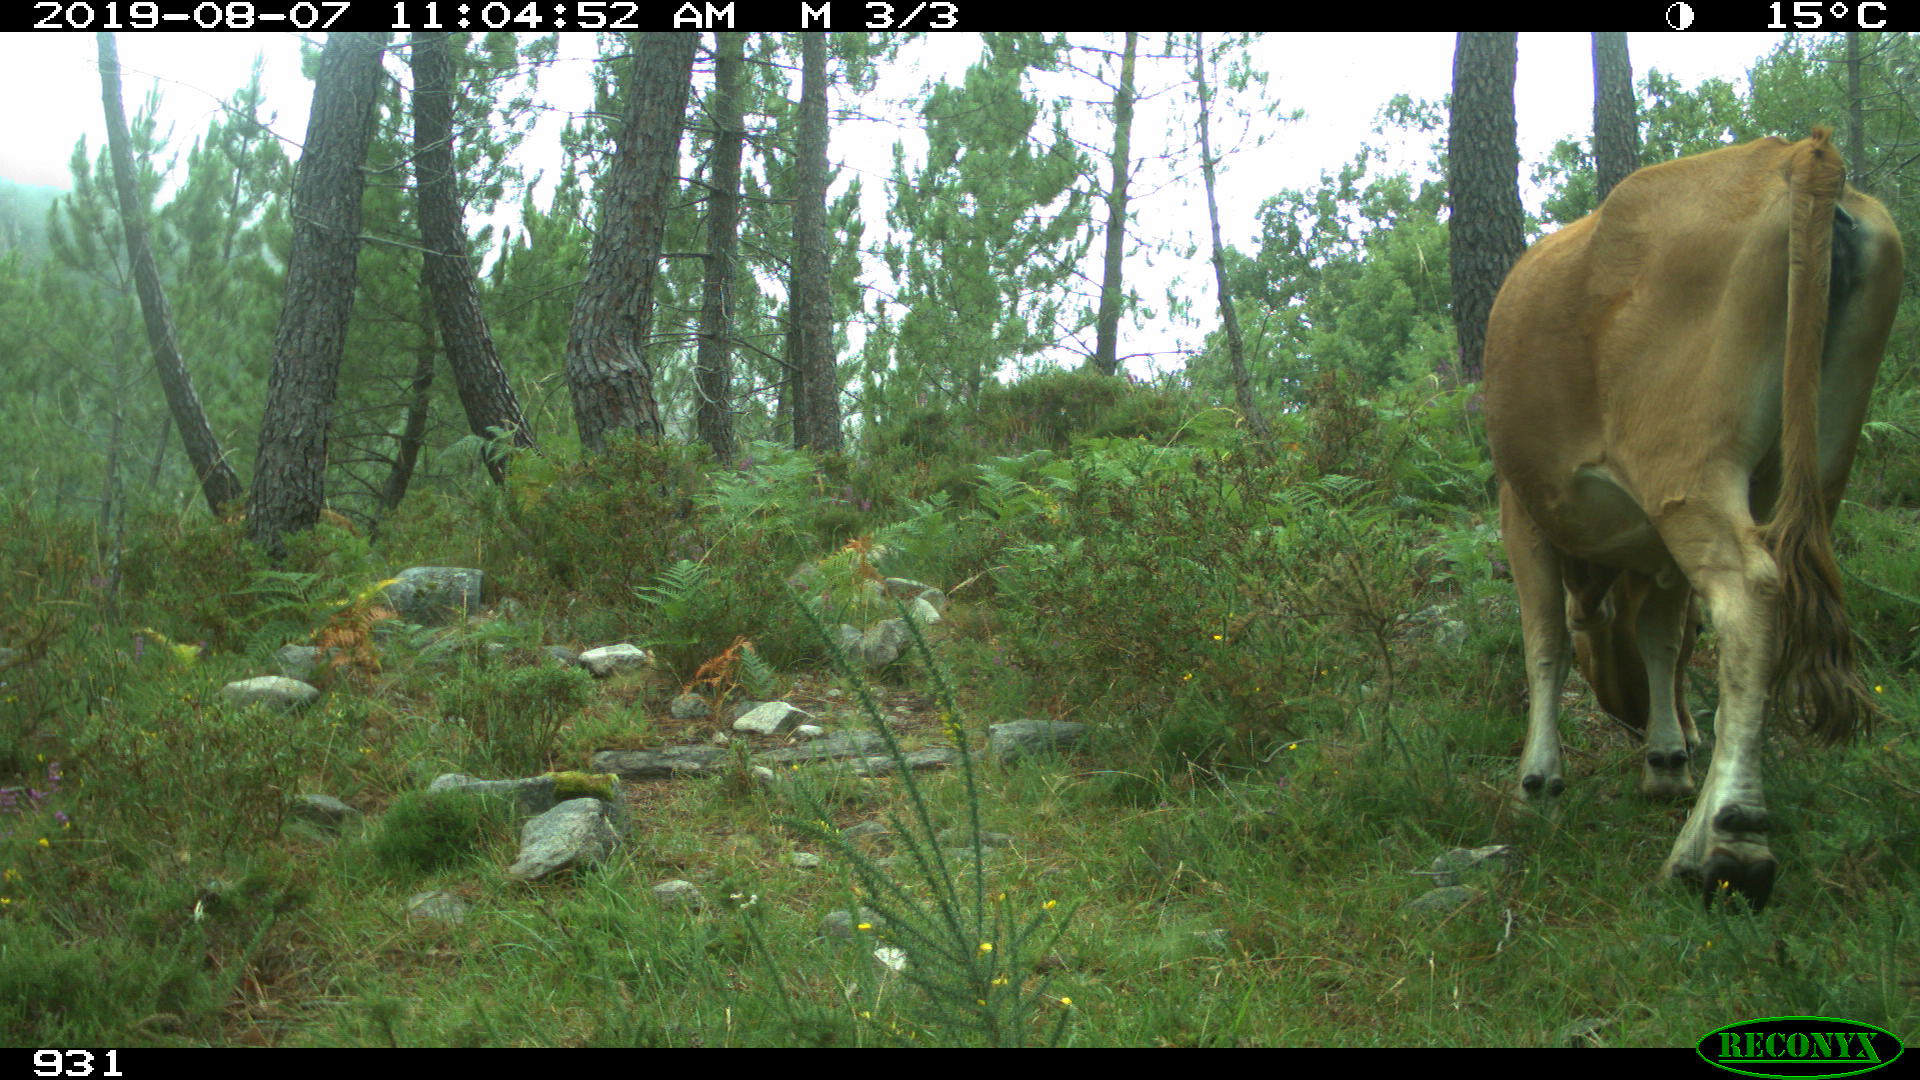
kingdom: Animalia
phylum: Chordata
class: Mammalia
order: Artiodactyla
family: Bovidae
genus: Bos
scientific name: Bos taurus
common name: Domesticated cattle
